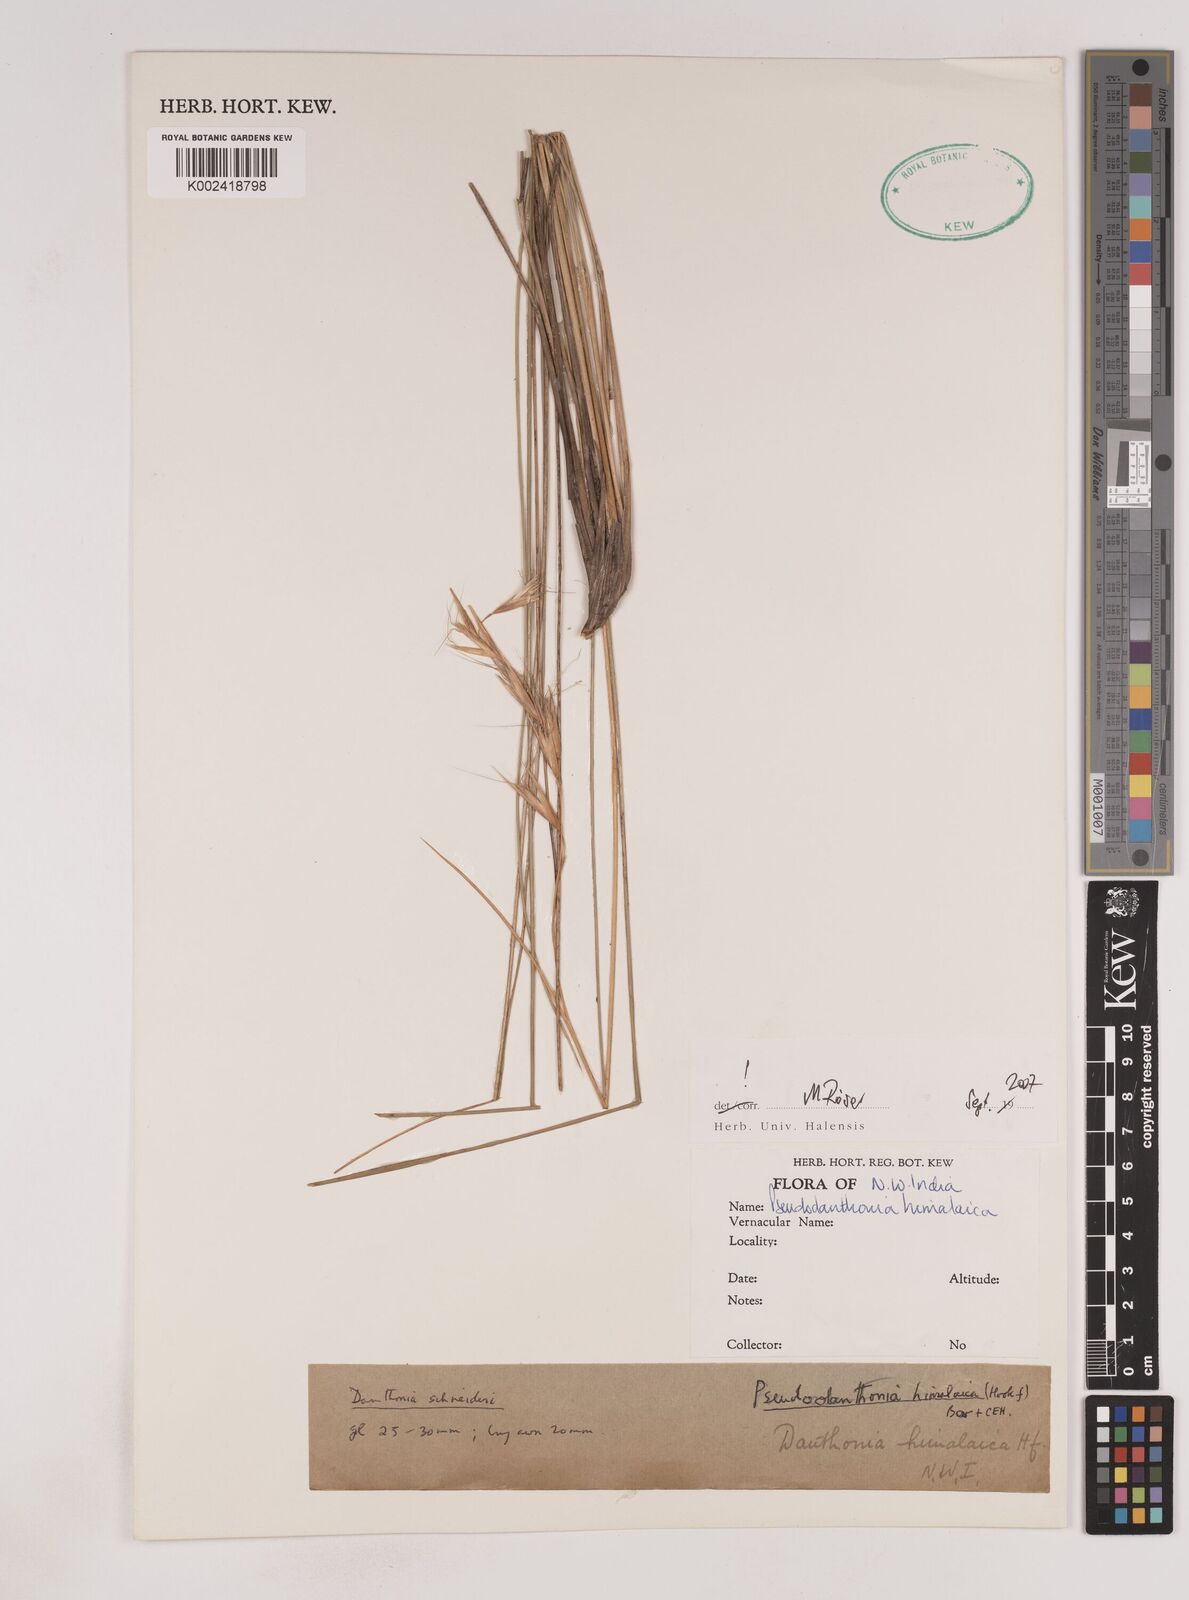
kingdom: Plantae
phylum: Tracheophyta
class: Liliopsida
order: Poales
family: Poaceae
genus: Pseudodanthonia
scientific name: Pseudodanthonia himalaica
